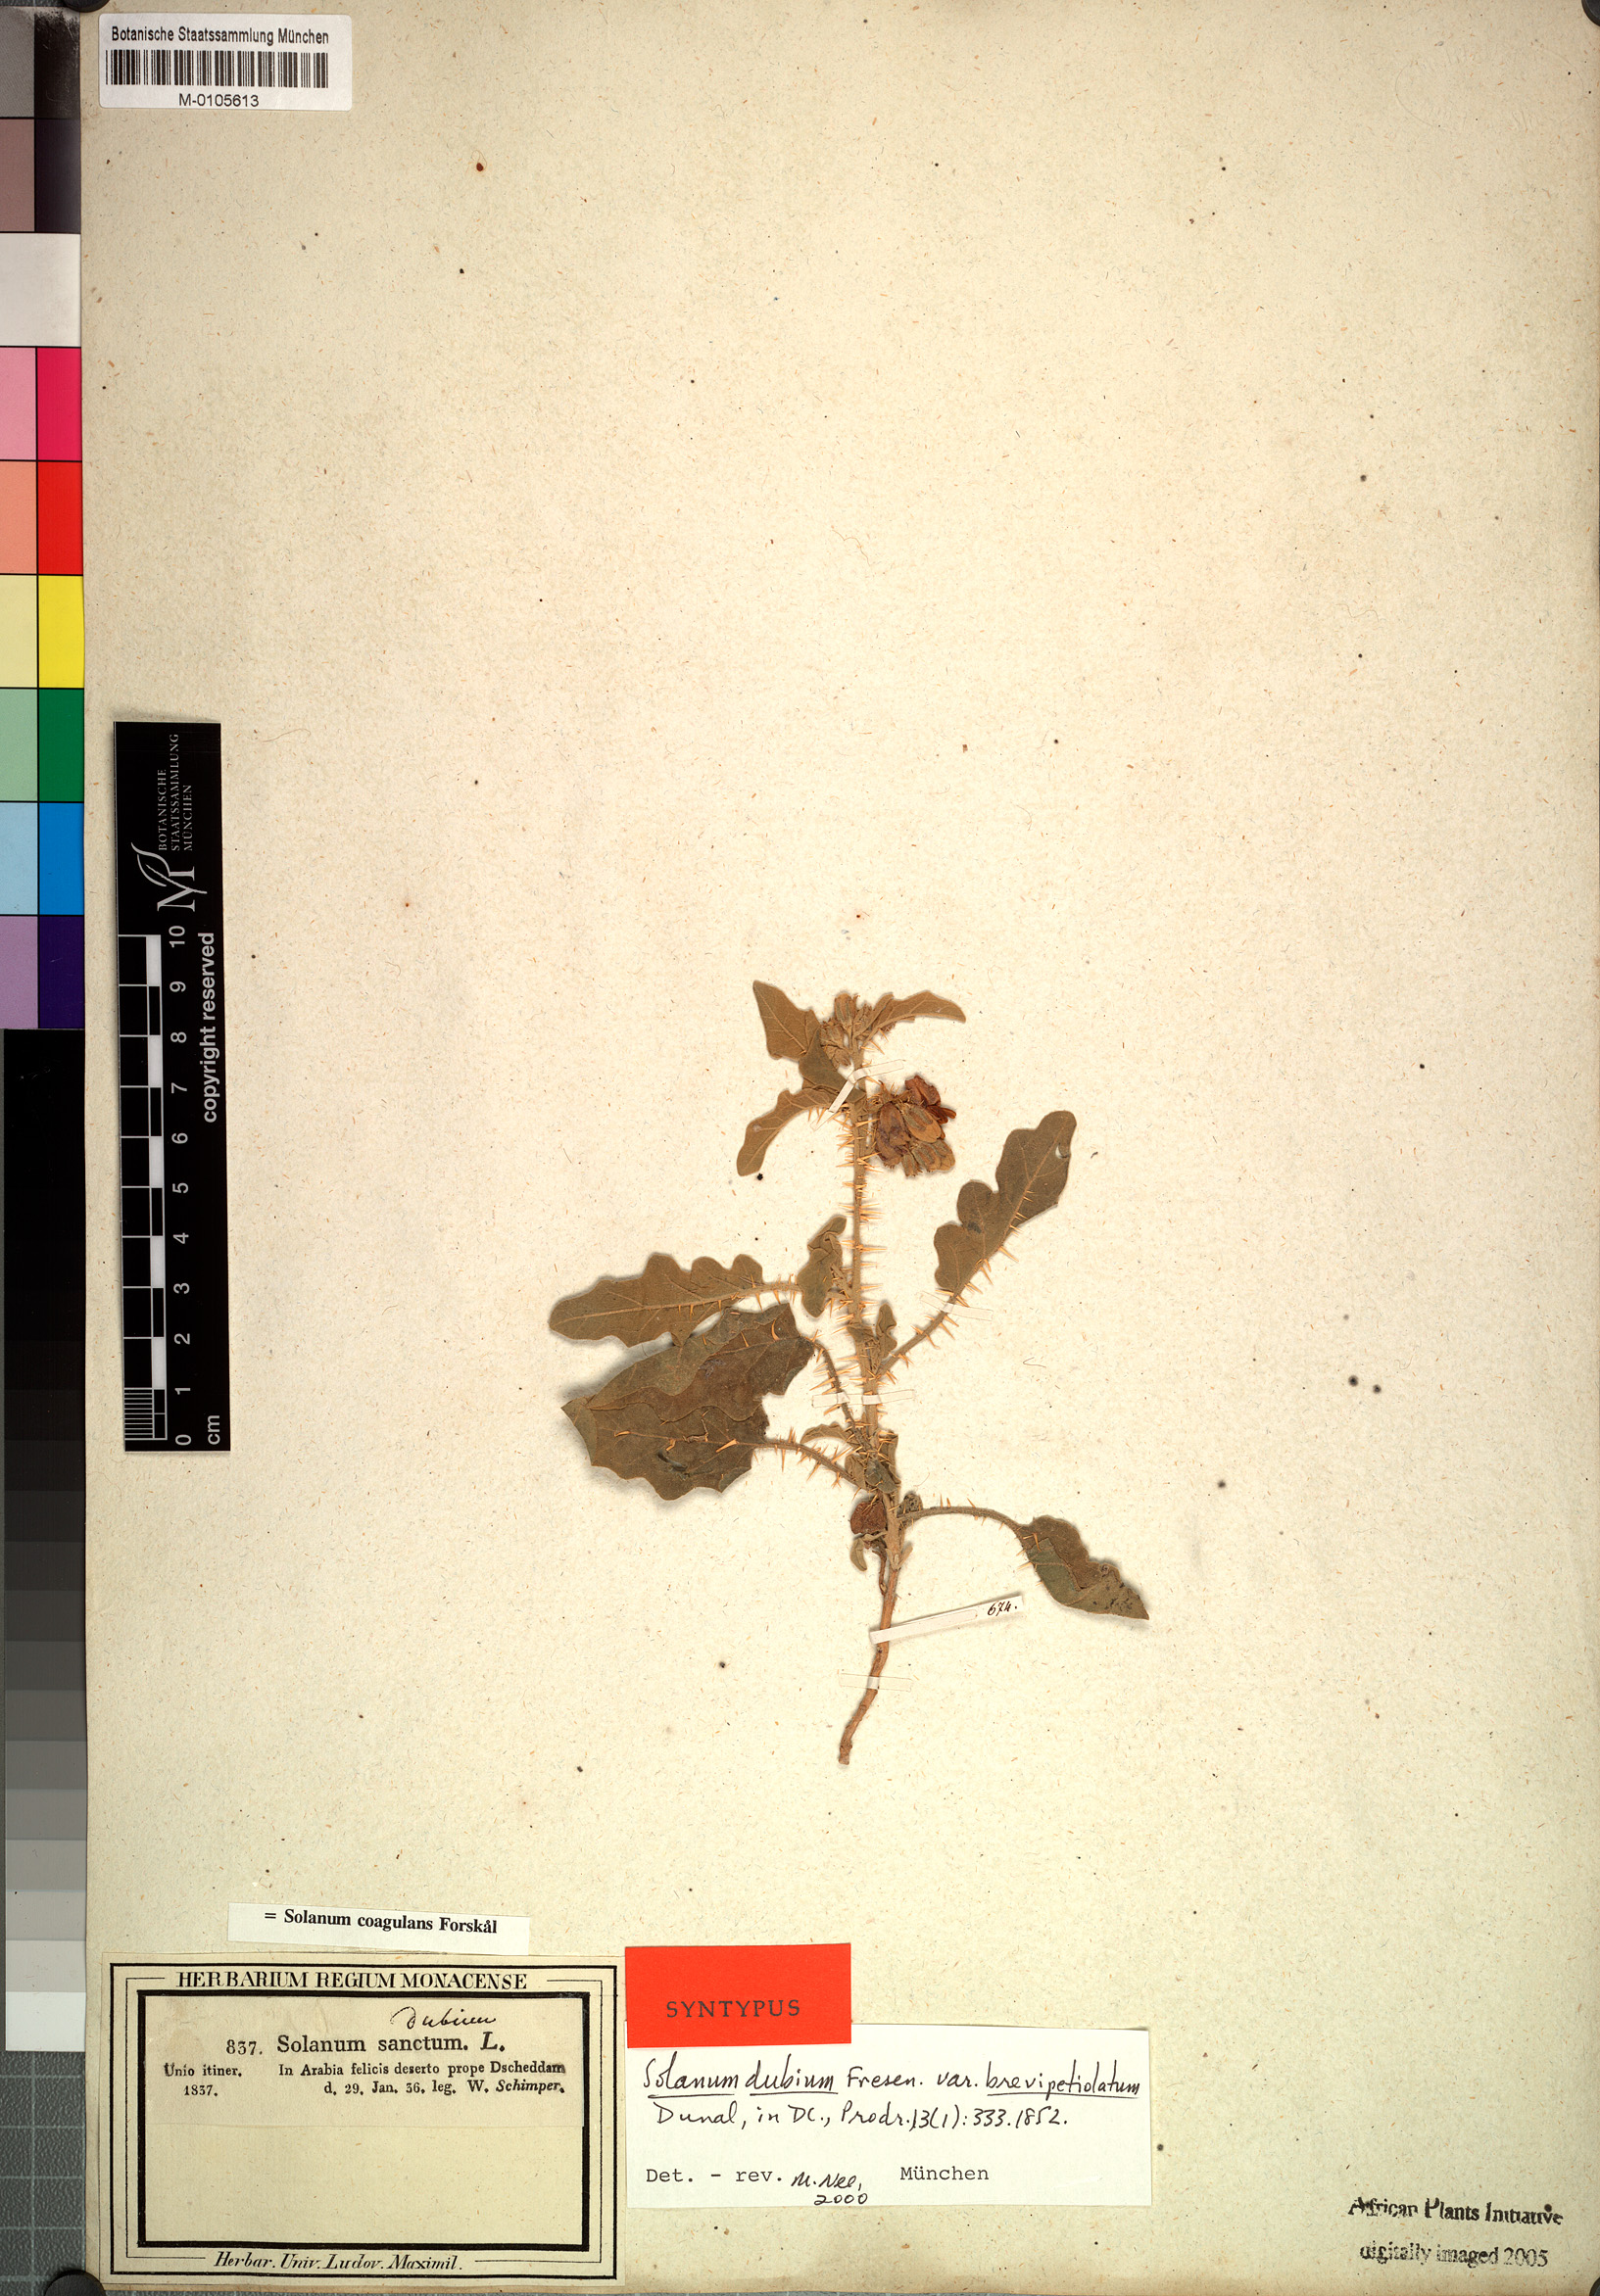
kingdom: Plantae
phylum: Tracheophyta
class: Magnoliopsida
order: Solanales
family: Solanaceae
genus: Solanum
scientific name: Solanum coagulans
